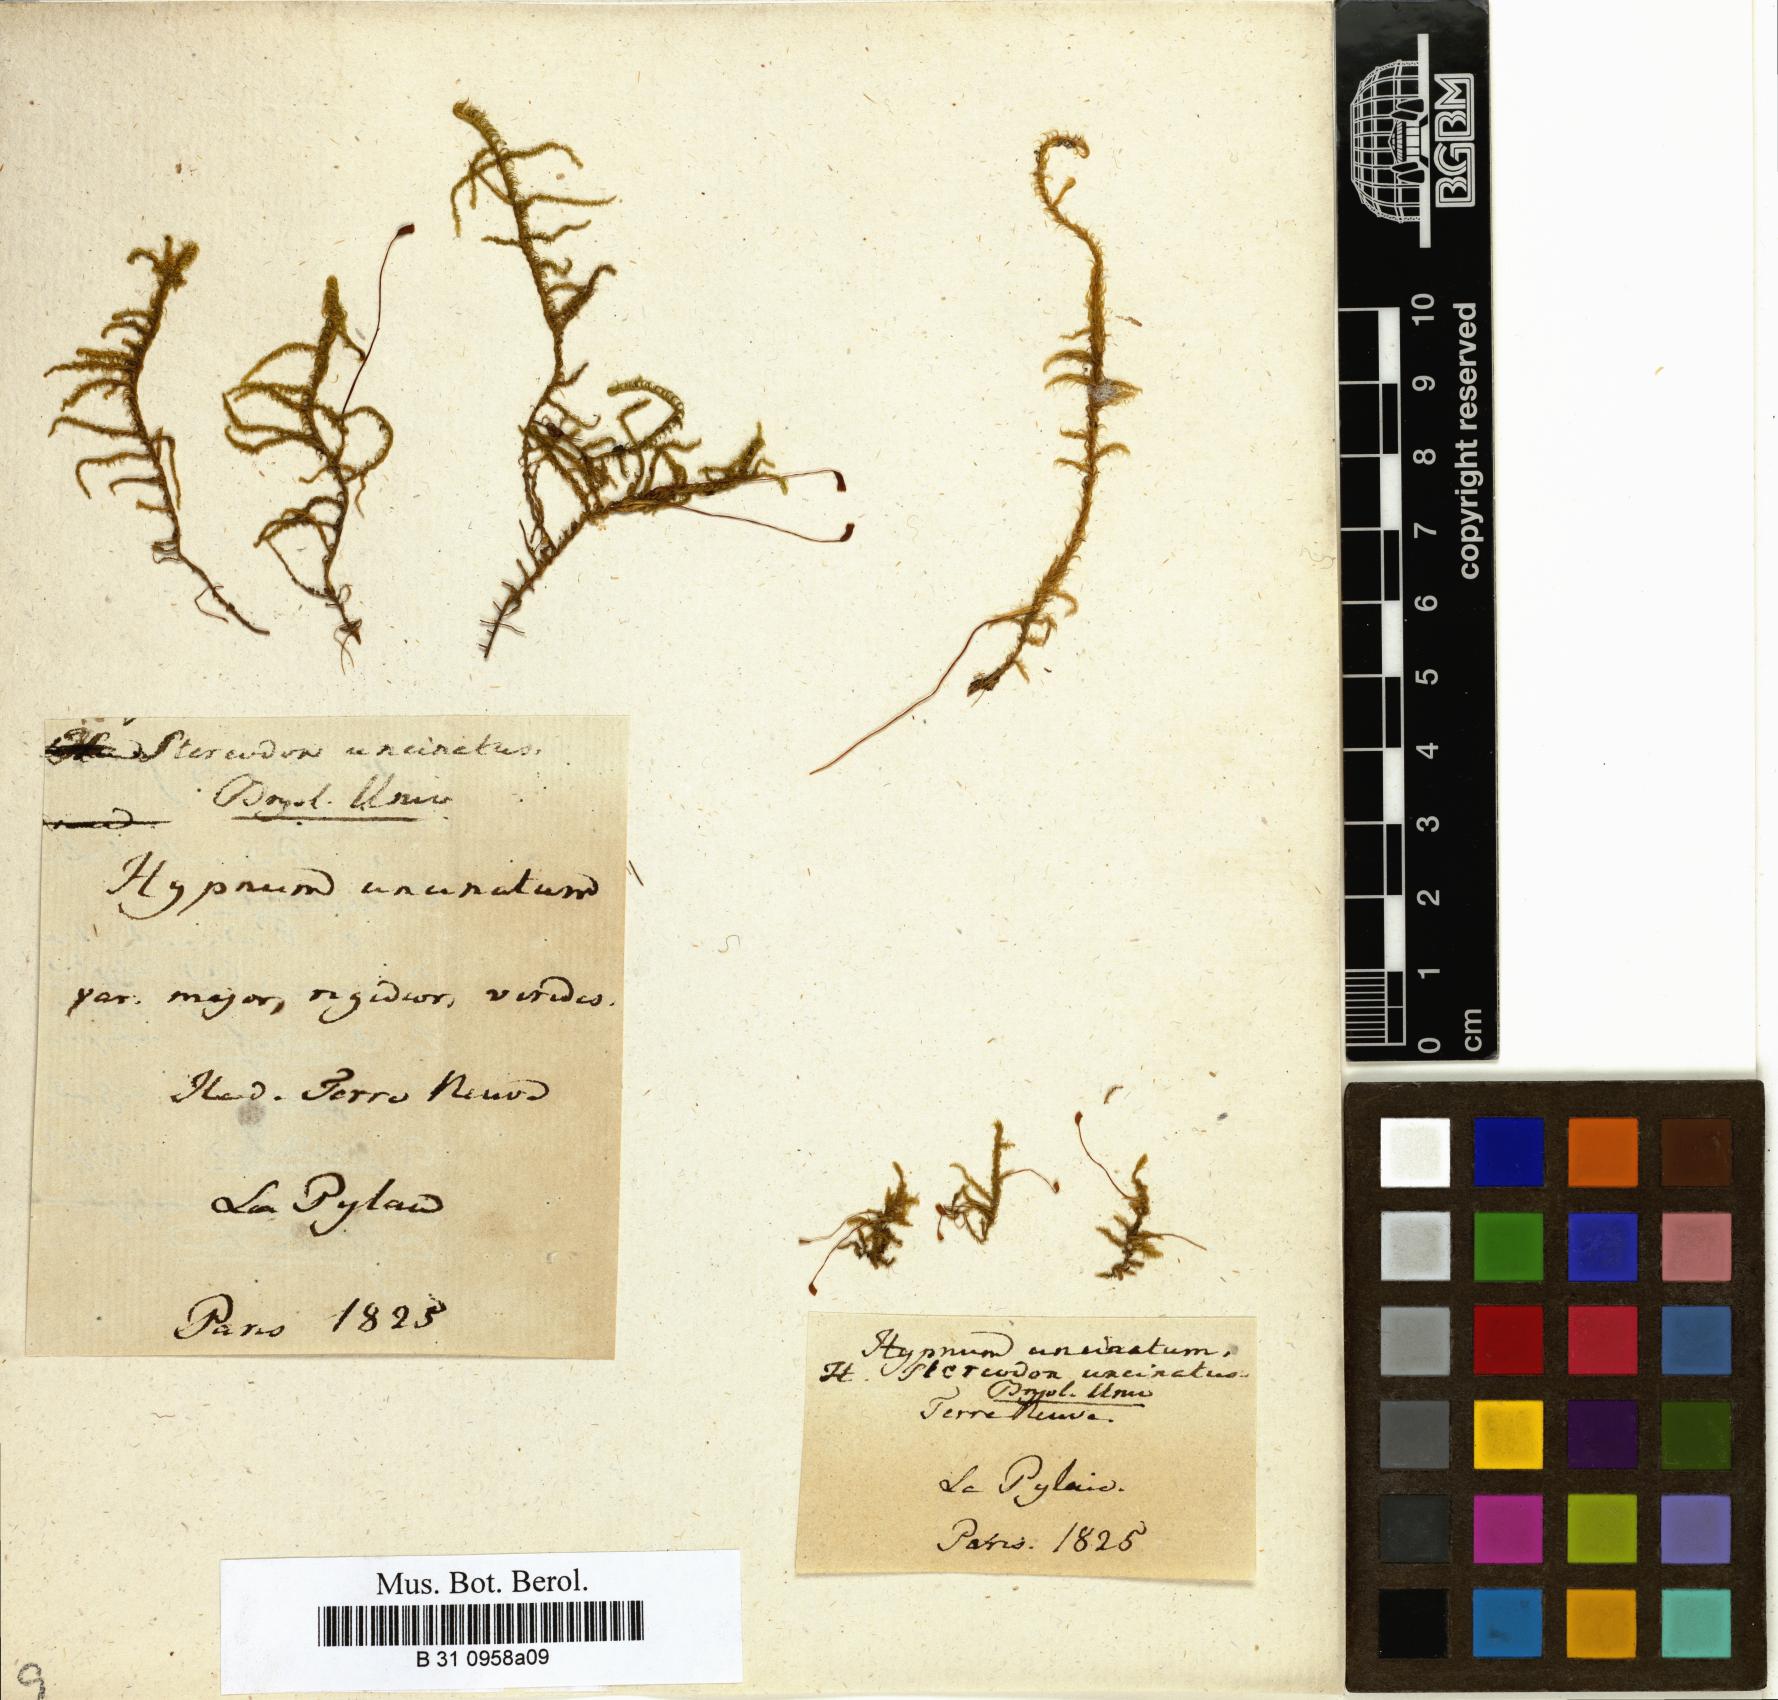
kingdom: Plantae
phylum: Bryophyta
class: Bryopsida
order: Hypnales
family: Scorpidiaceae
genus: Sanionia
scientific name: Sanionia uncinata
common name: Sickle moss
